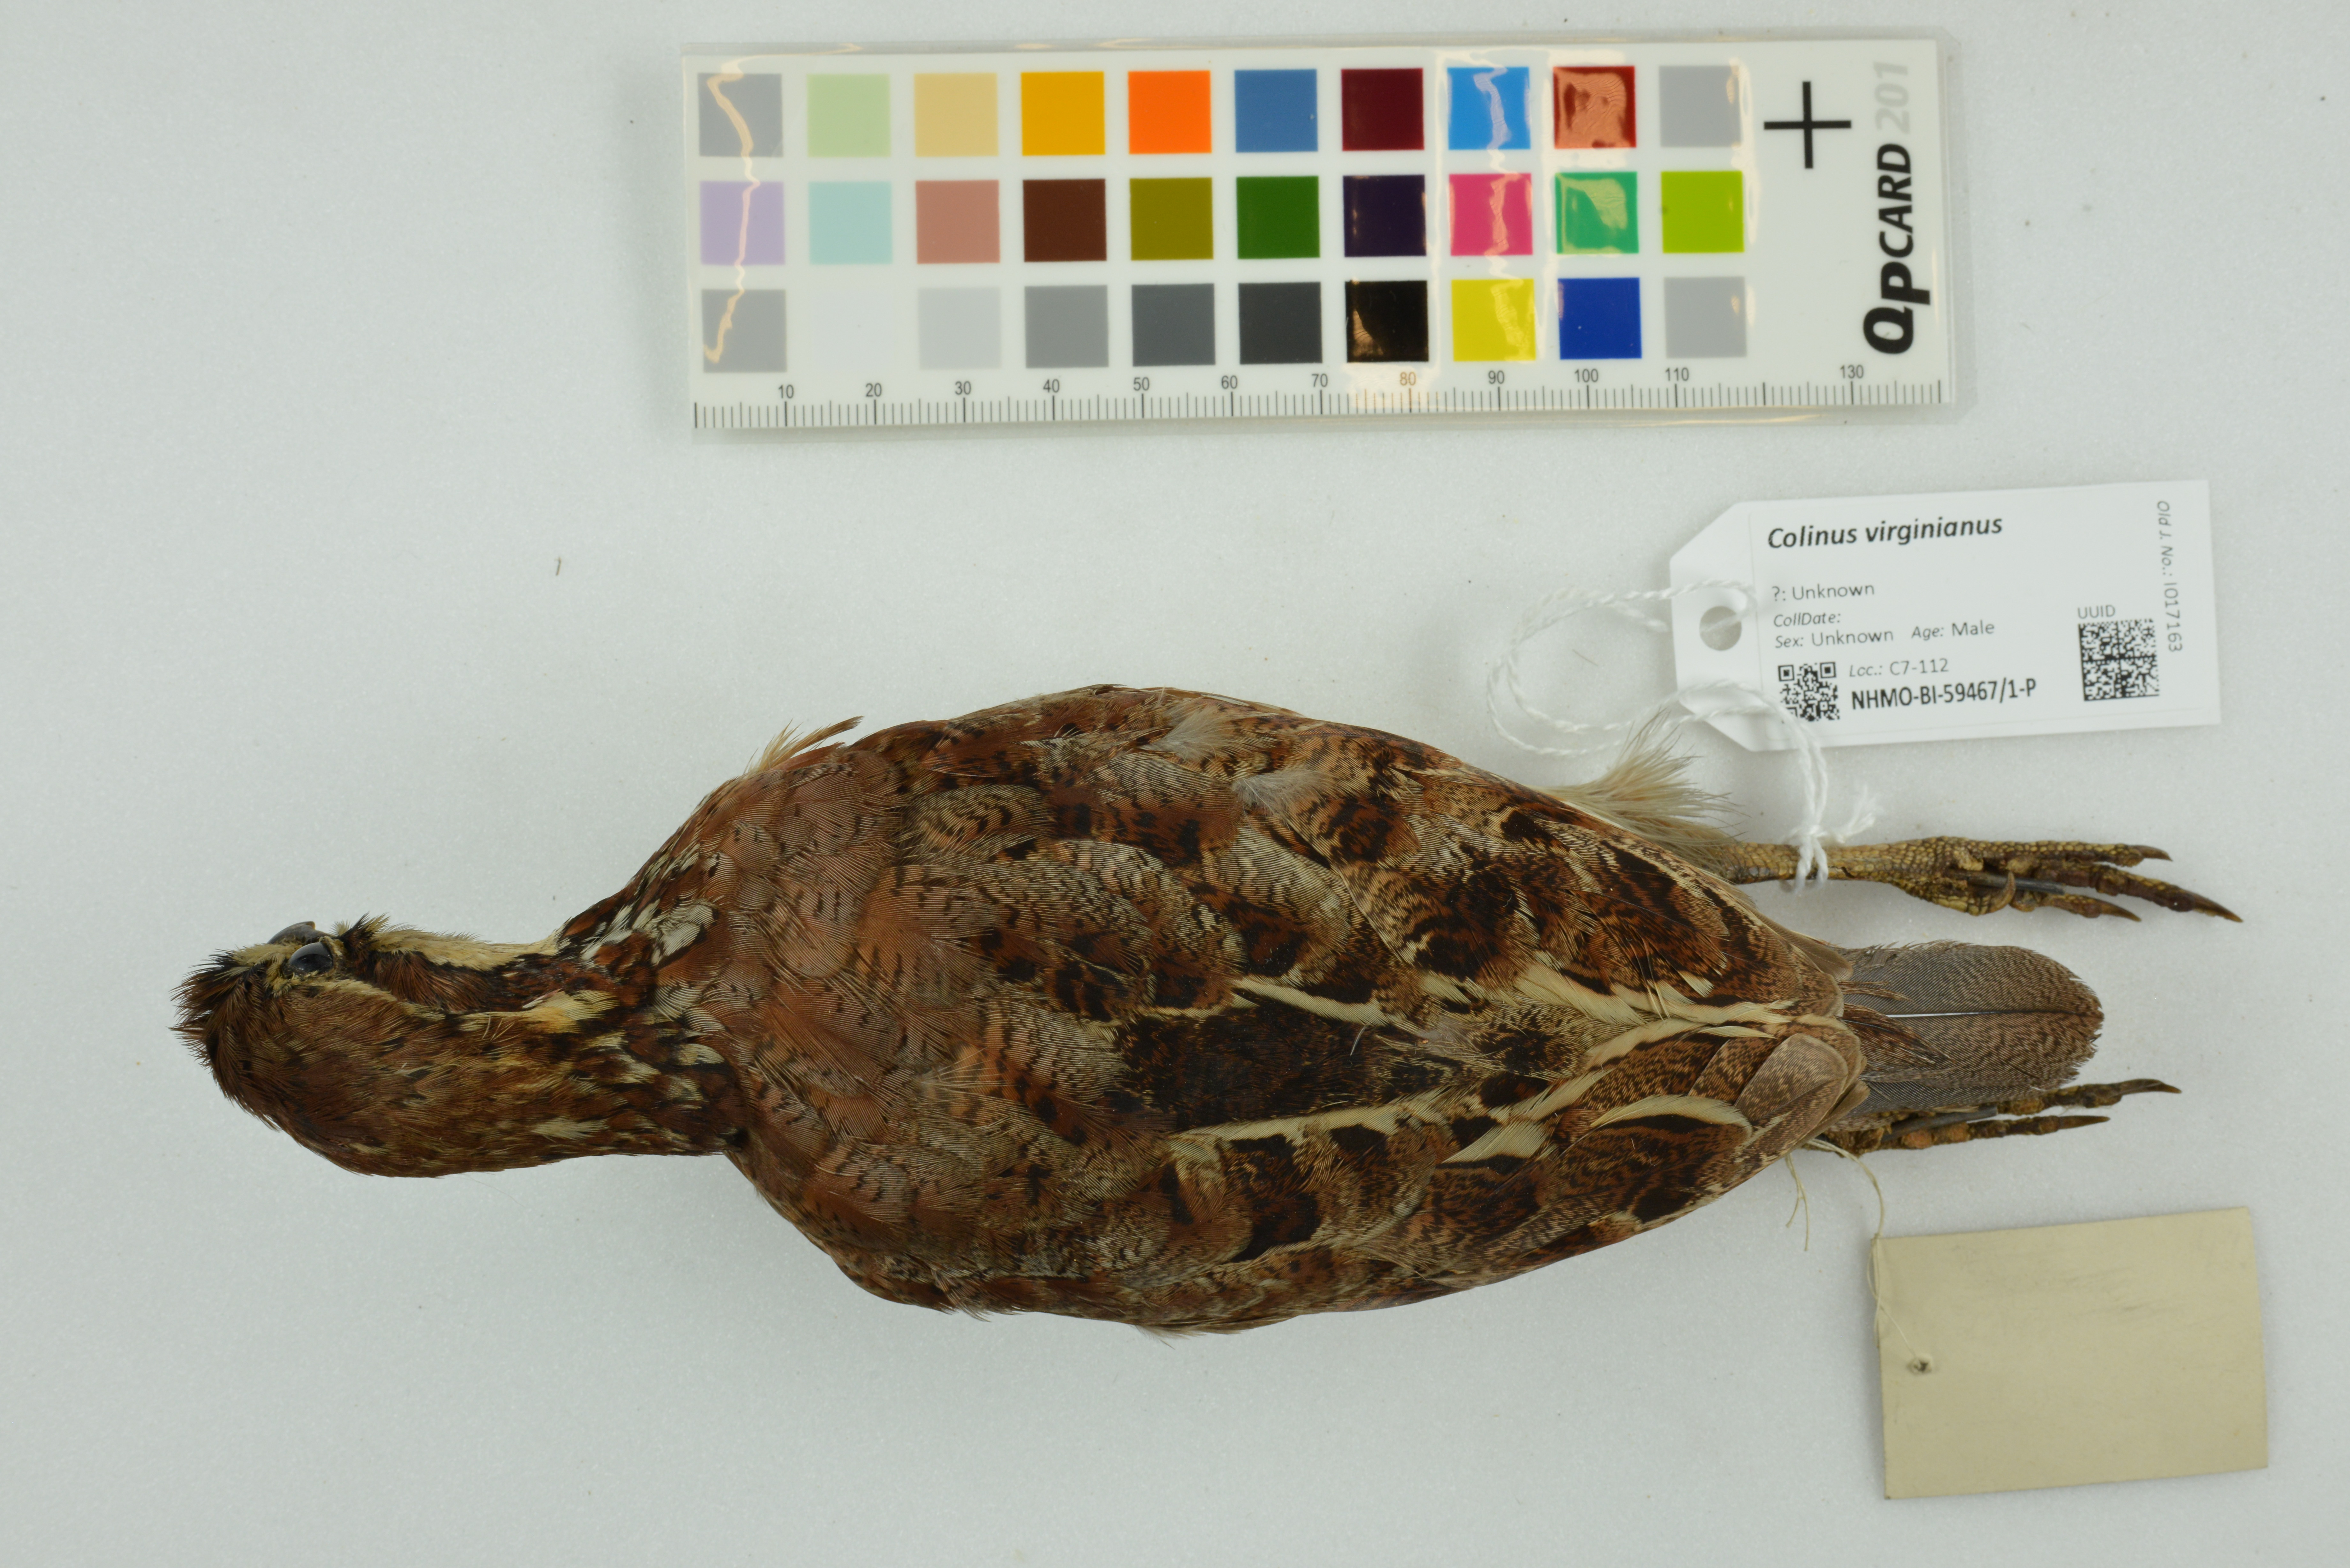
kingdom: Animalia
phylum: Chordata
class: Aves
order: Galliformes
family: Odontophoridae
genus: Colinus
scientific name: Colinus virginianus
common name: Northern bobwhite
